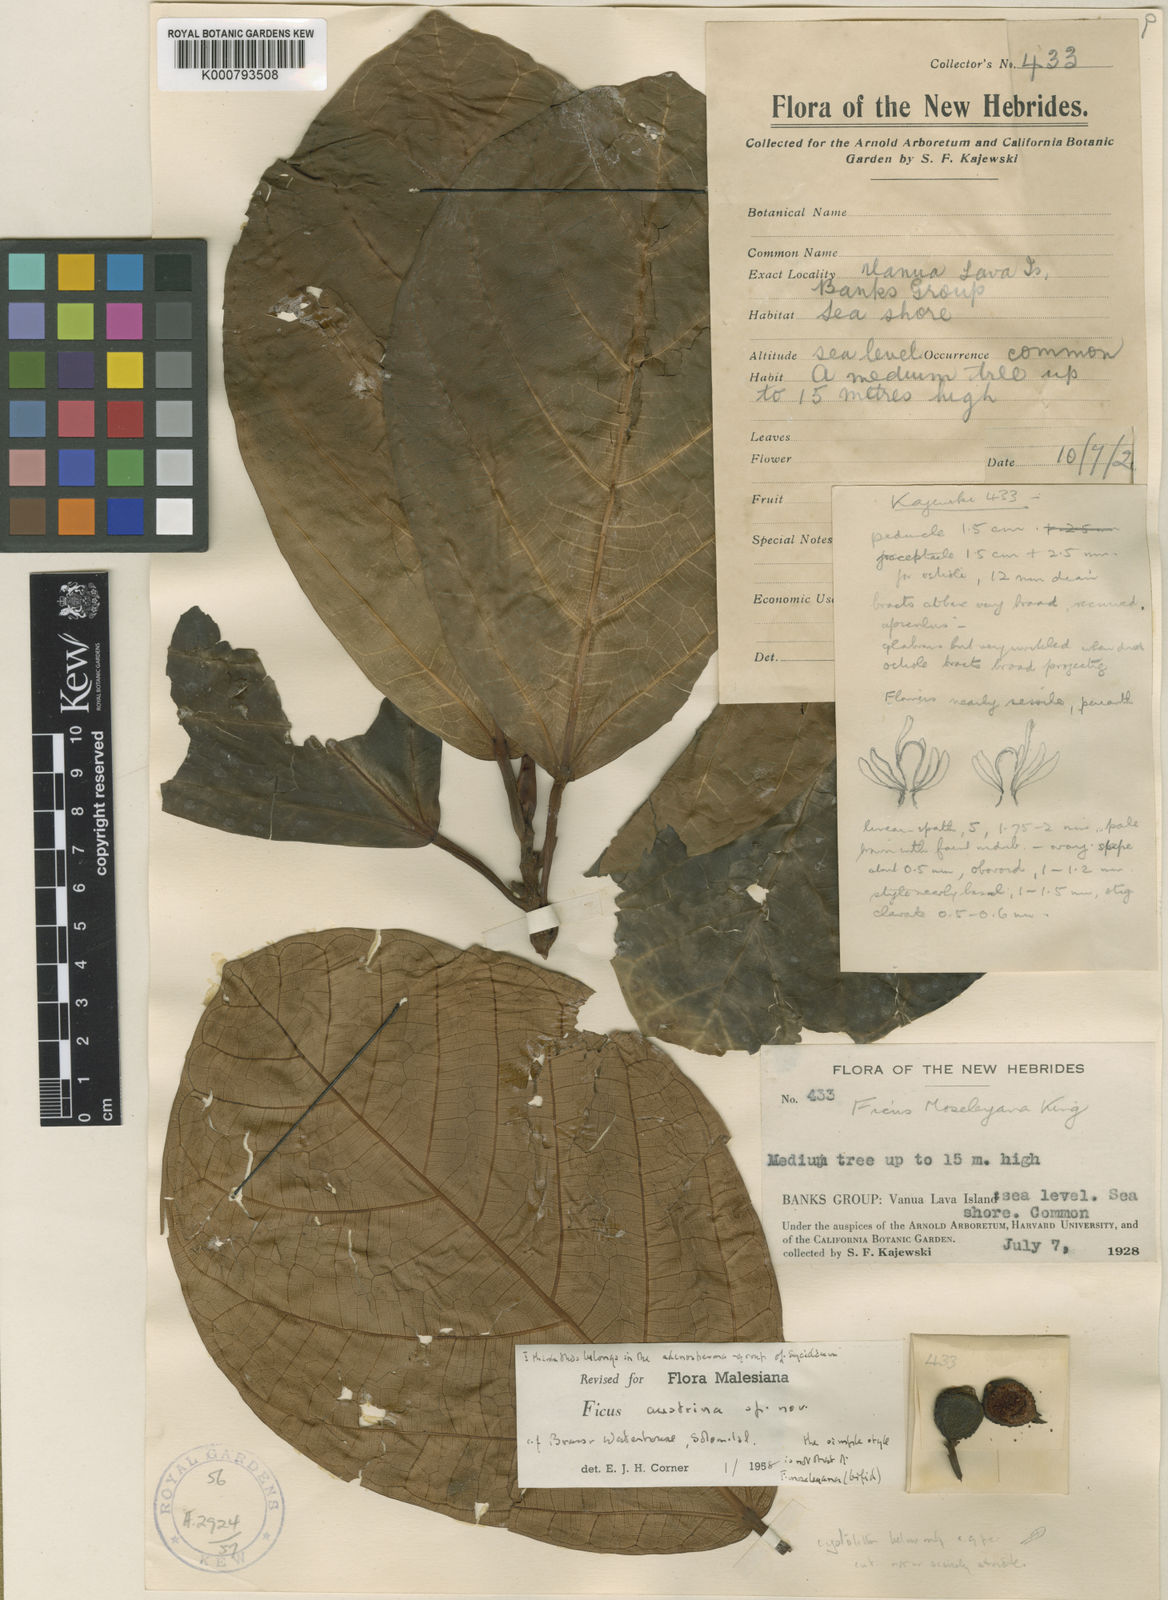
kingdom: Plantae
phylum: Tracheophyta
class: Magnoliopsida
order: Rosales
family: Moraceae
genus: Ficus
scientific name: Ficus austrina
